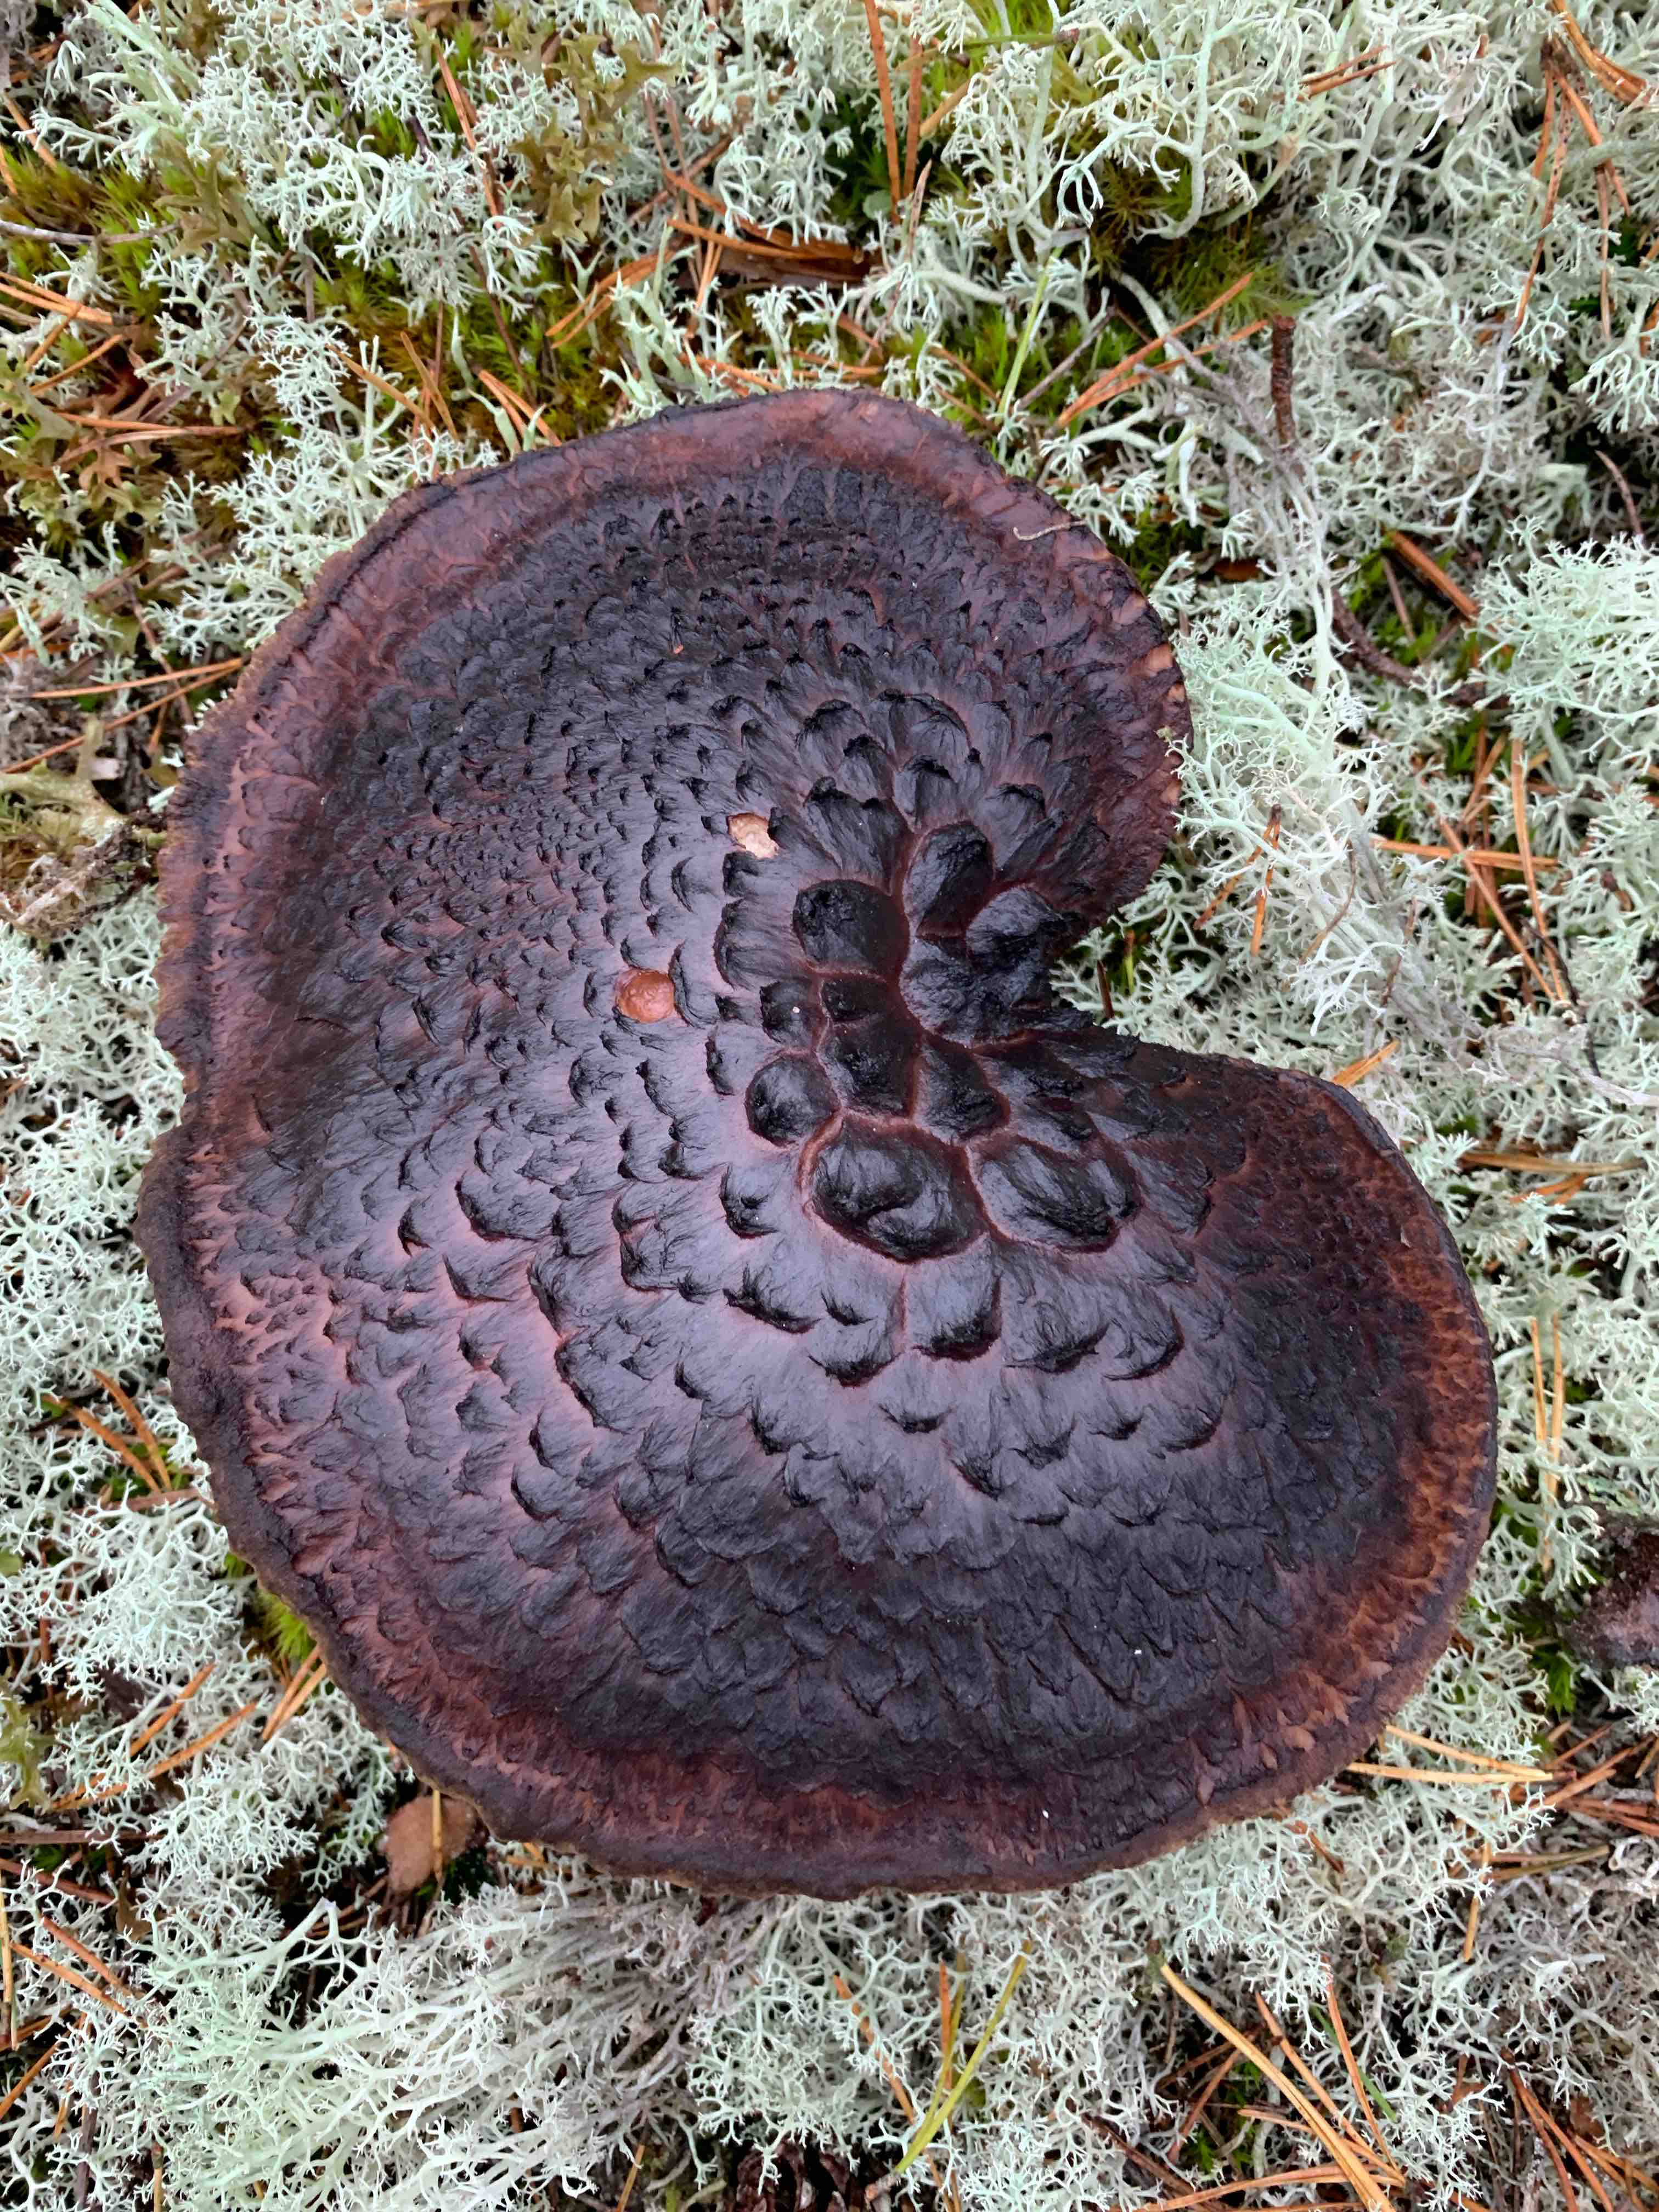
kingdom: Fungi
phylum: Basidiomycota
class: Agaricomycetes
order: Thelephorales
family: Bankeraceae
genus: Sarcodon
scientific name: Sarcodon squamosus
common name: småskællet kødpigsvamp
